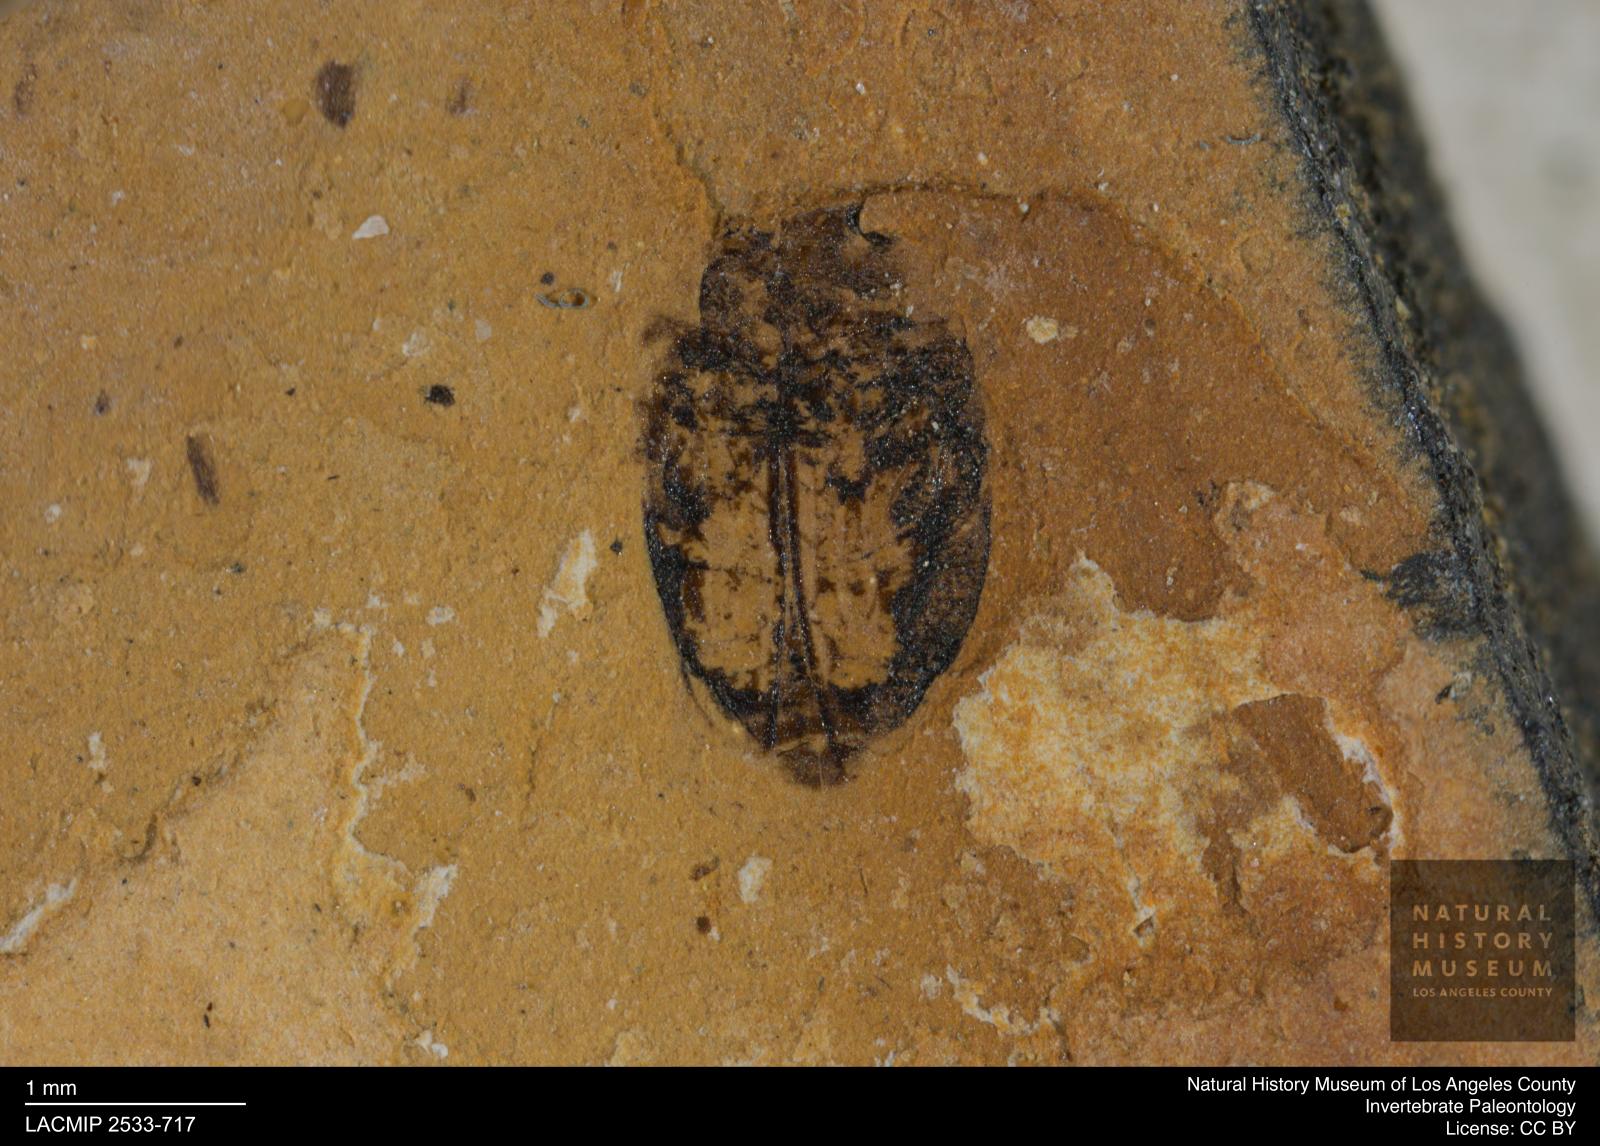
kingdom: Animalia
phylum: Arthropoda
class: Insecta
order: Coleoptera
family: Dytiscidae
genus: Oreodytes
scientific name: Oreodytes cryptolineatus
